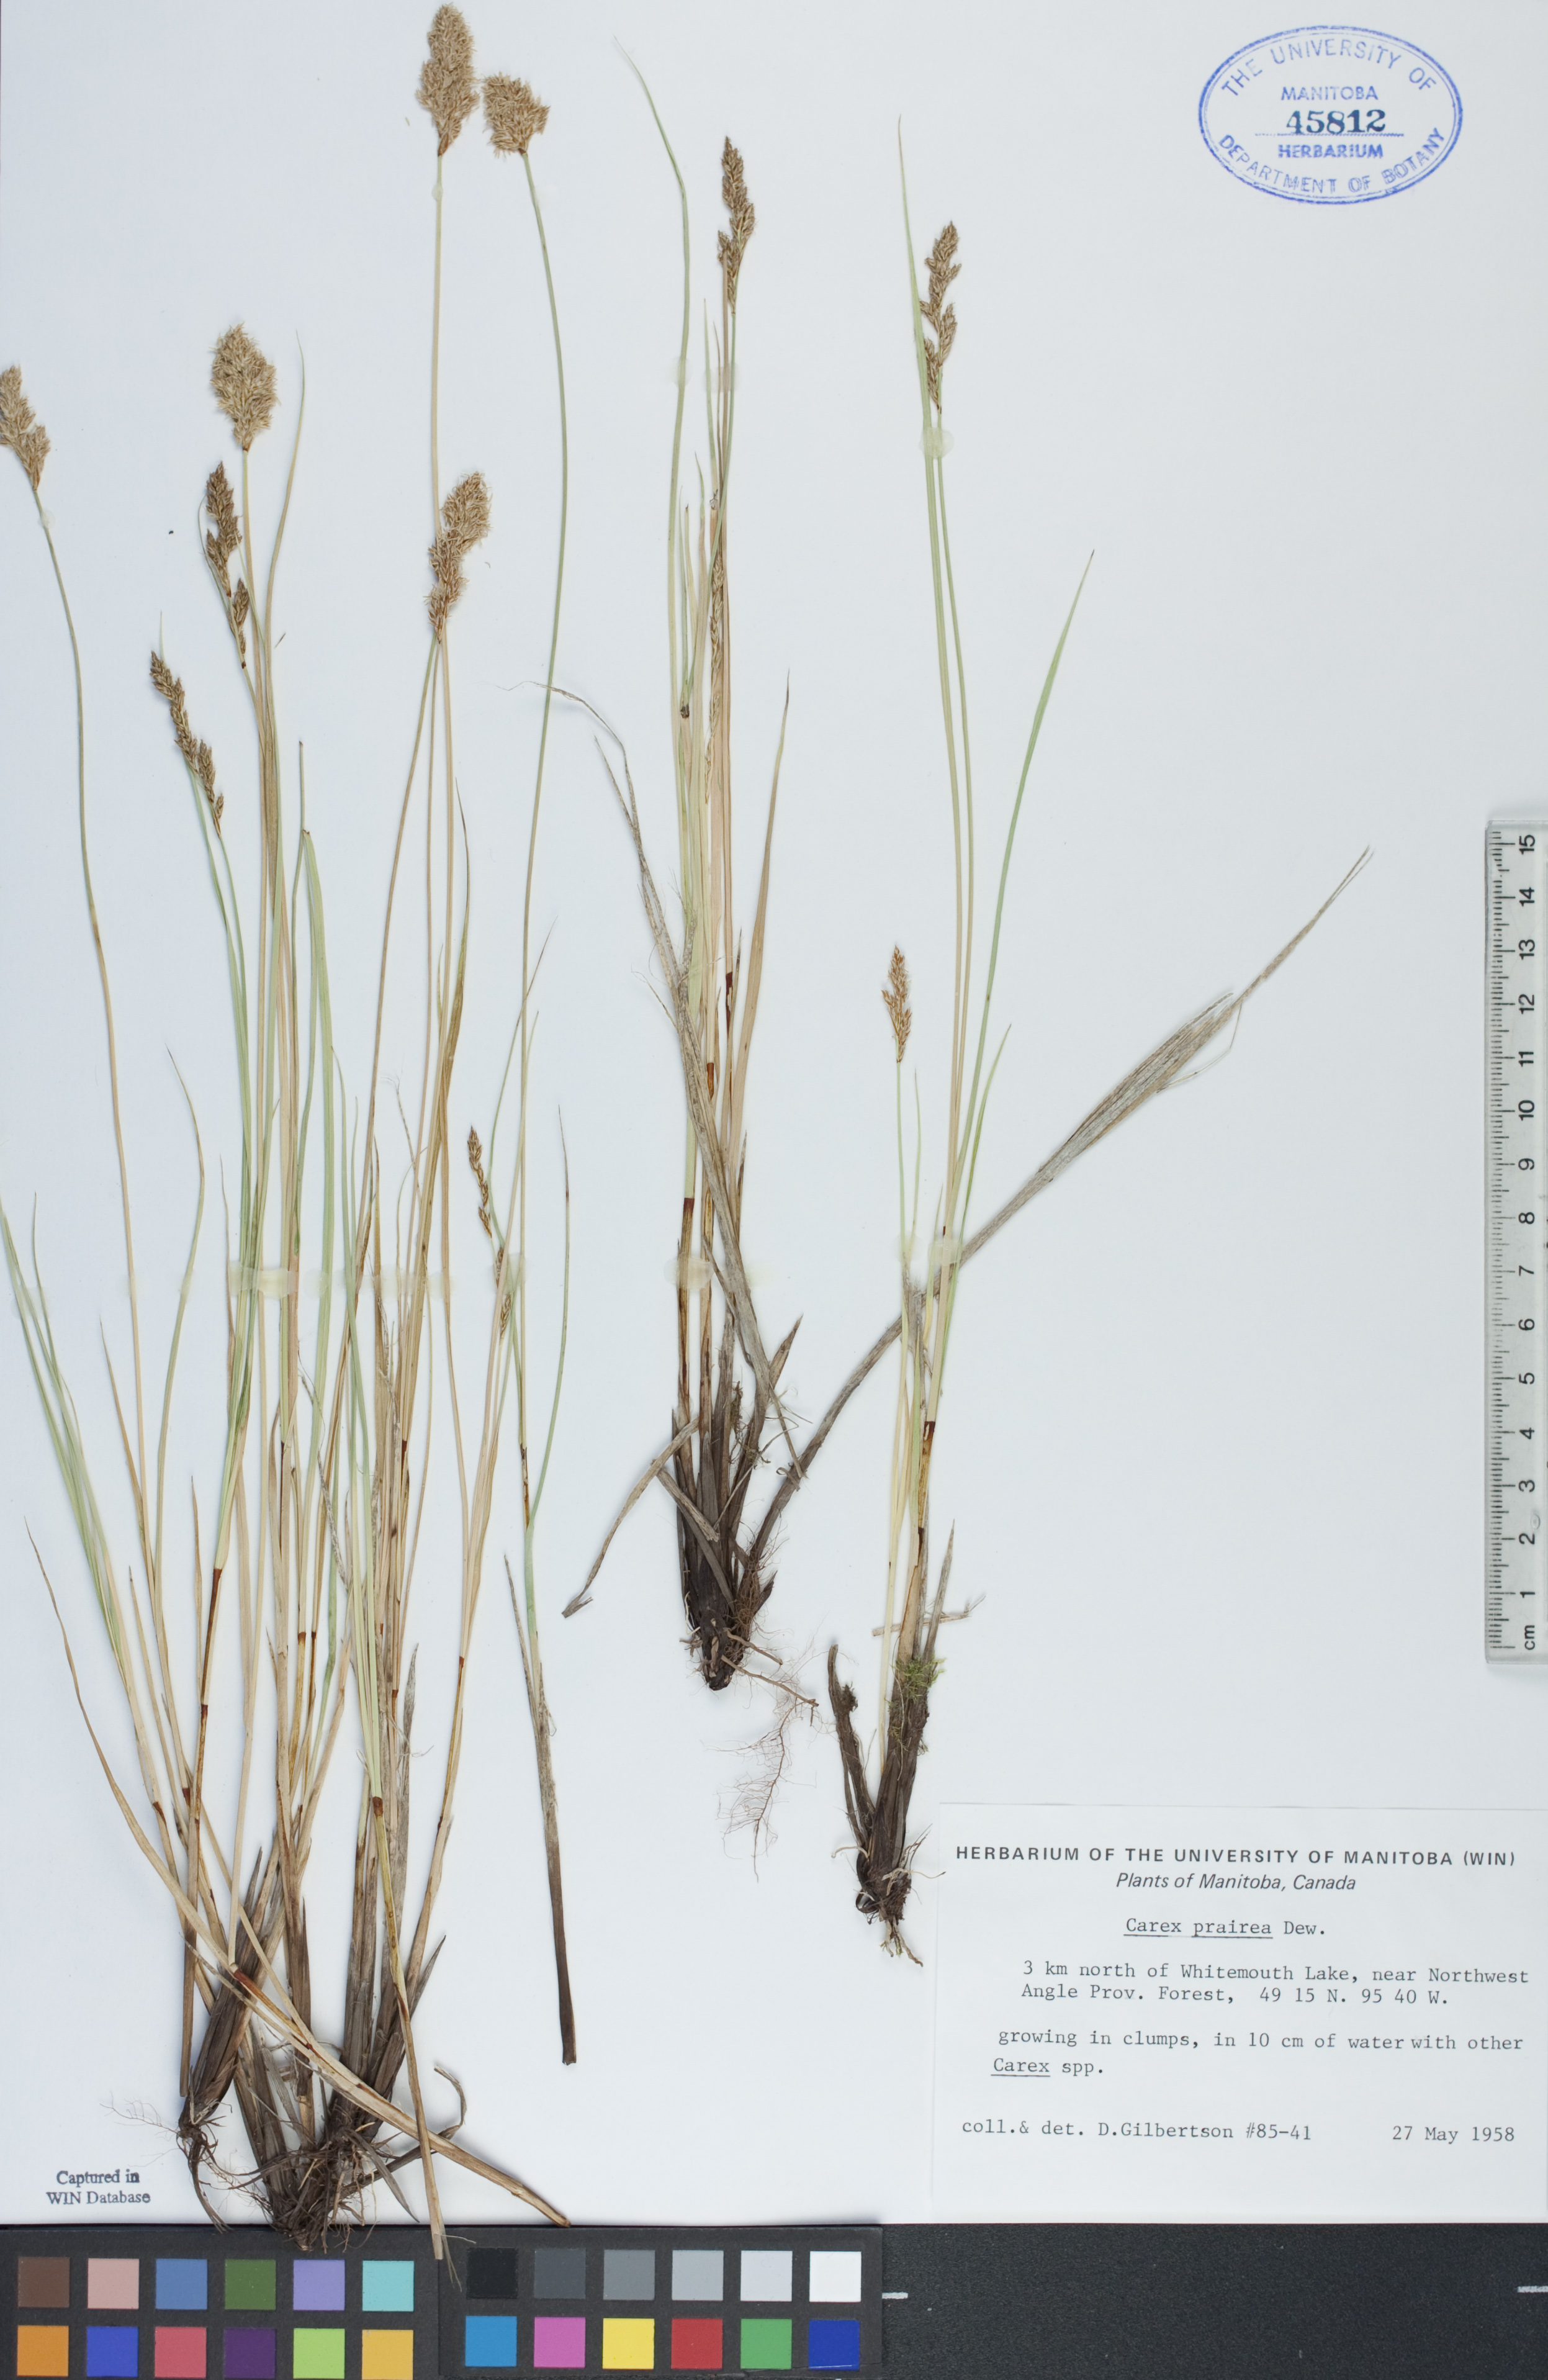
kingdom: Plantae
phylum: Tracheophyta
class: Liliopsida
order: Poales
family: Cyperaceae
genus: Carex
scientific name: Carex prairea
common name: Prairie sedge
